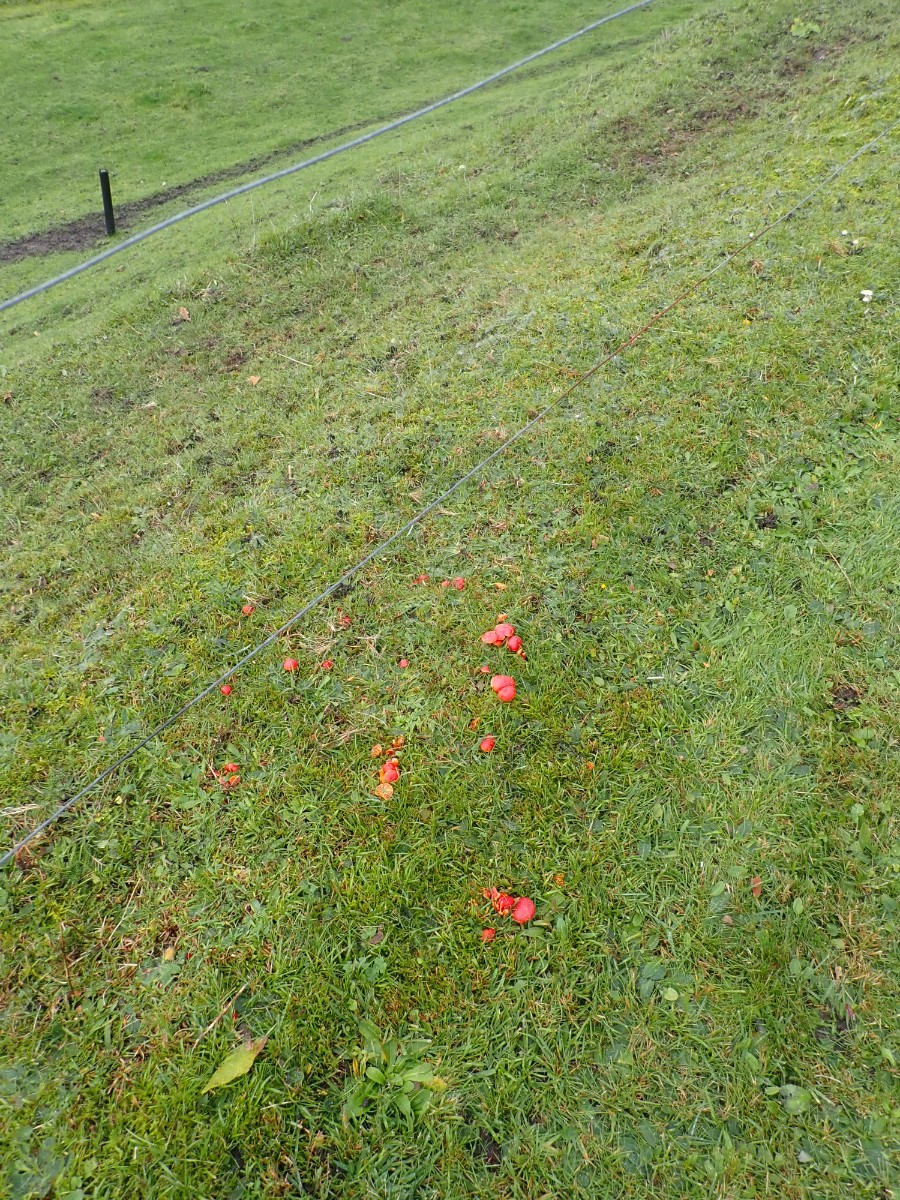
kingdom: Fungi
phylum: Basidiomycota
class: Agaricomycetes
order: Agaricales
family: Hygrophoraceae
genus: Hygrocybe
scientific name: Hygrocybe coccinea
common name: cinnober-vokshat
